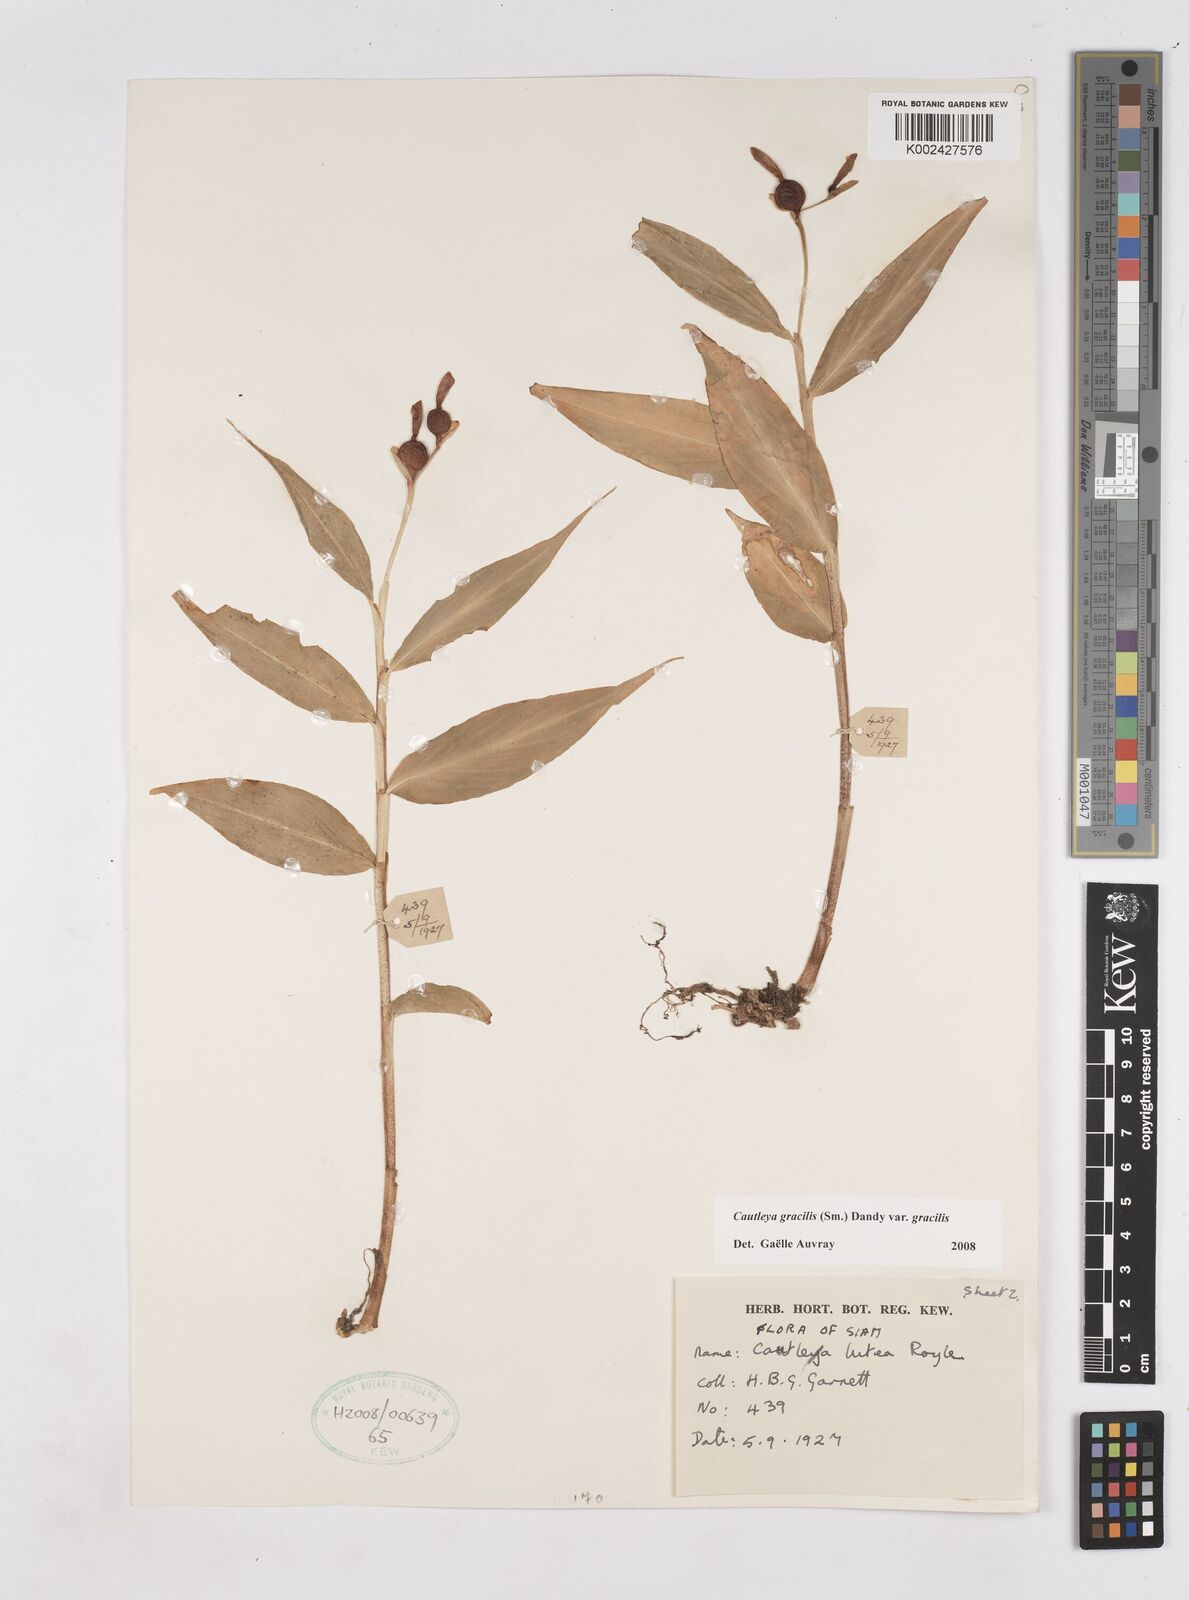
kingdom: Plantae
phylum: Tracheophyta
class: Liliopsida
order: Zingiberales
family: Zingiberaceae
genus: Cautleya
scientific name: Cautleya gracilis
